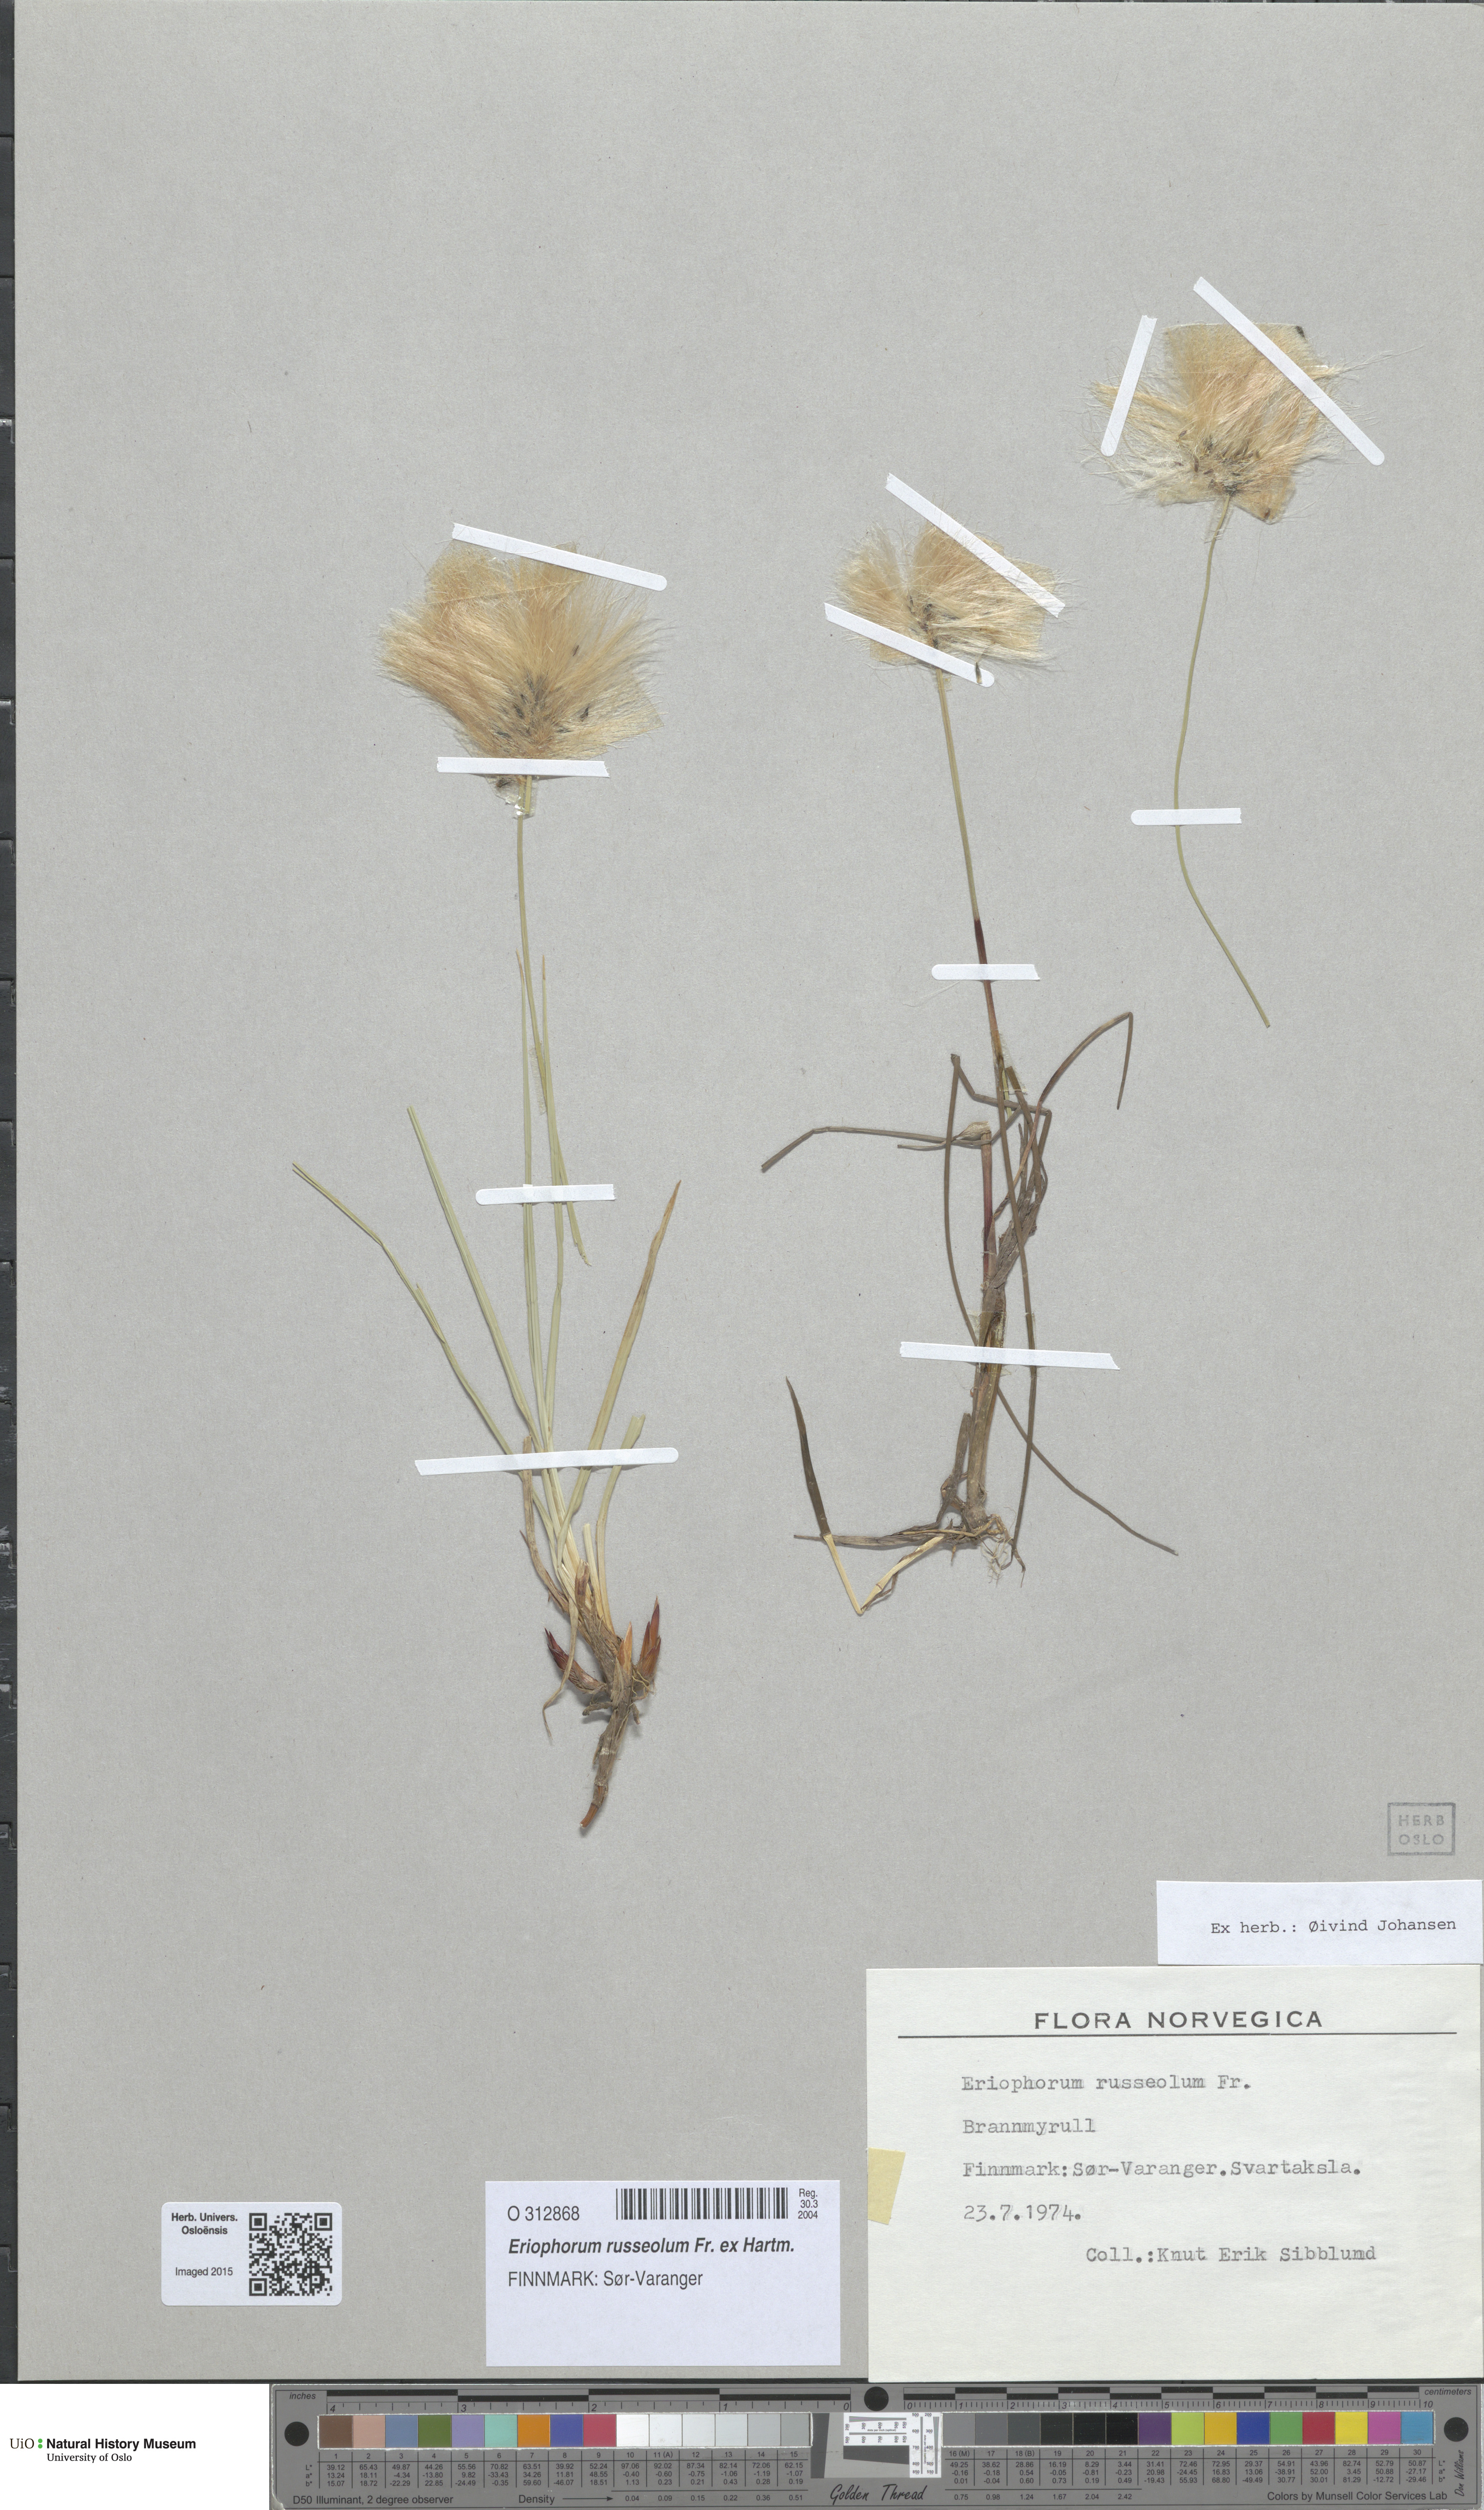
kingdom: Plantae
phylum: Tracheophyta
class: Liliopsida
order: Poales
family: Cyperaceae
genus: Eriophorum
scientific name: Eriophorum russeolum
